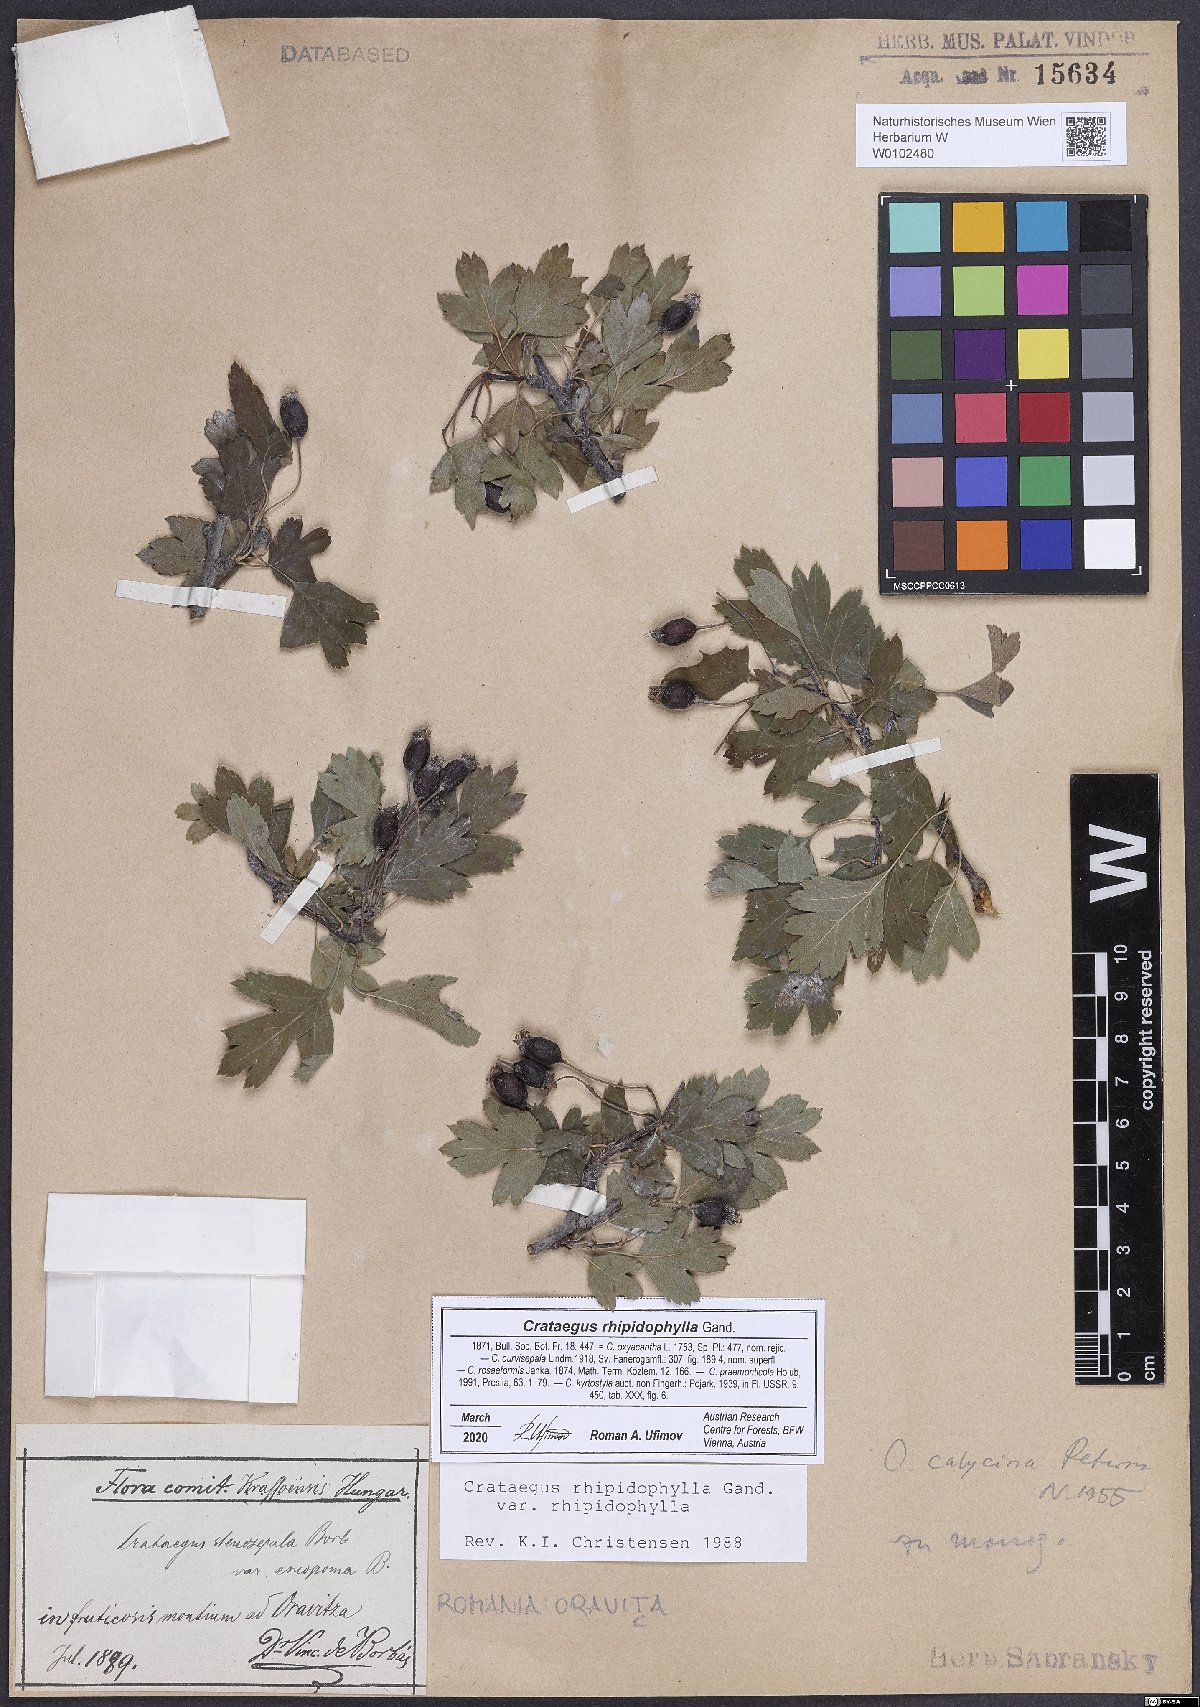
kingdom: Plantae
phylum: Tracheophyta
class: Magnoliopsida
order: Rosales
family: Rosaceae
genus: Crataegus
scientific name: Crataegus rhipidophylla
